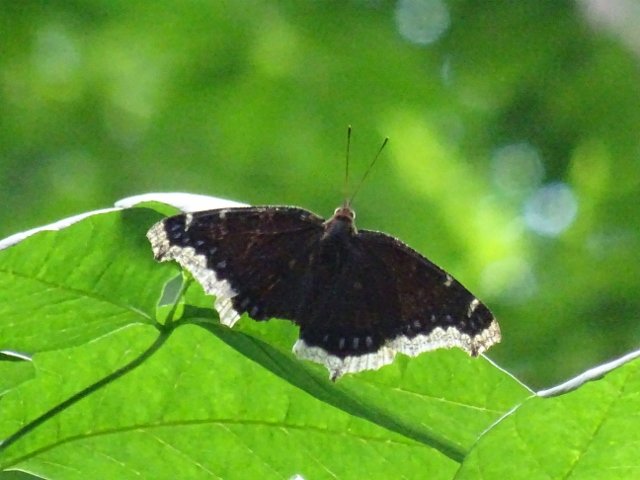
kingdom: Animalia
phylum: Arthropoda
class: Insecta
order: Lepidoptera
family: Nymphalidae
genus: Nymphalis
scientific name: Nymphalis antiopa
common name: Mourning Cloak
